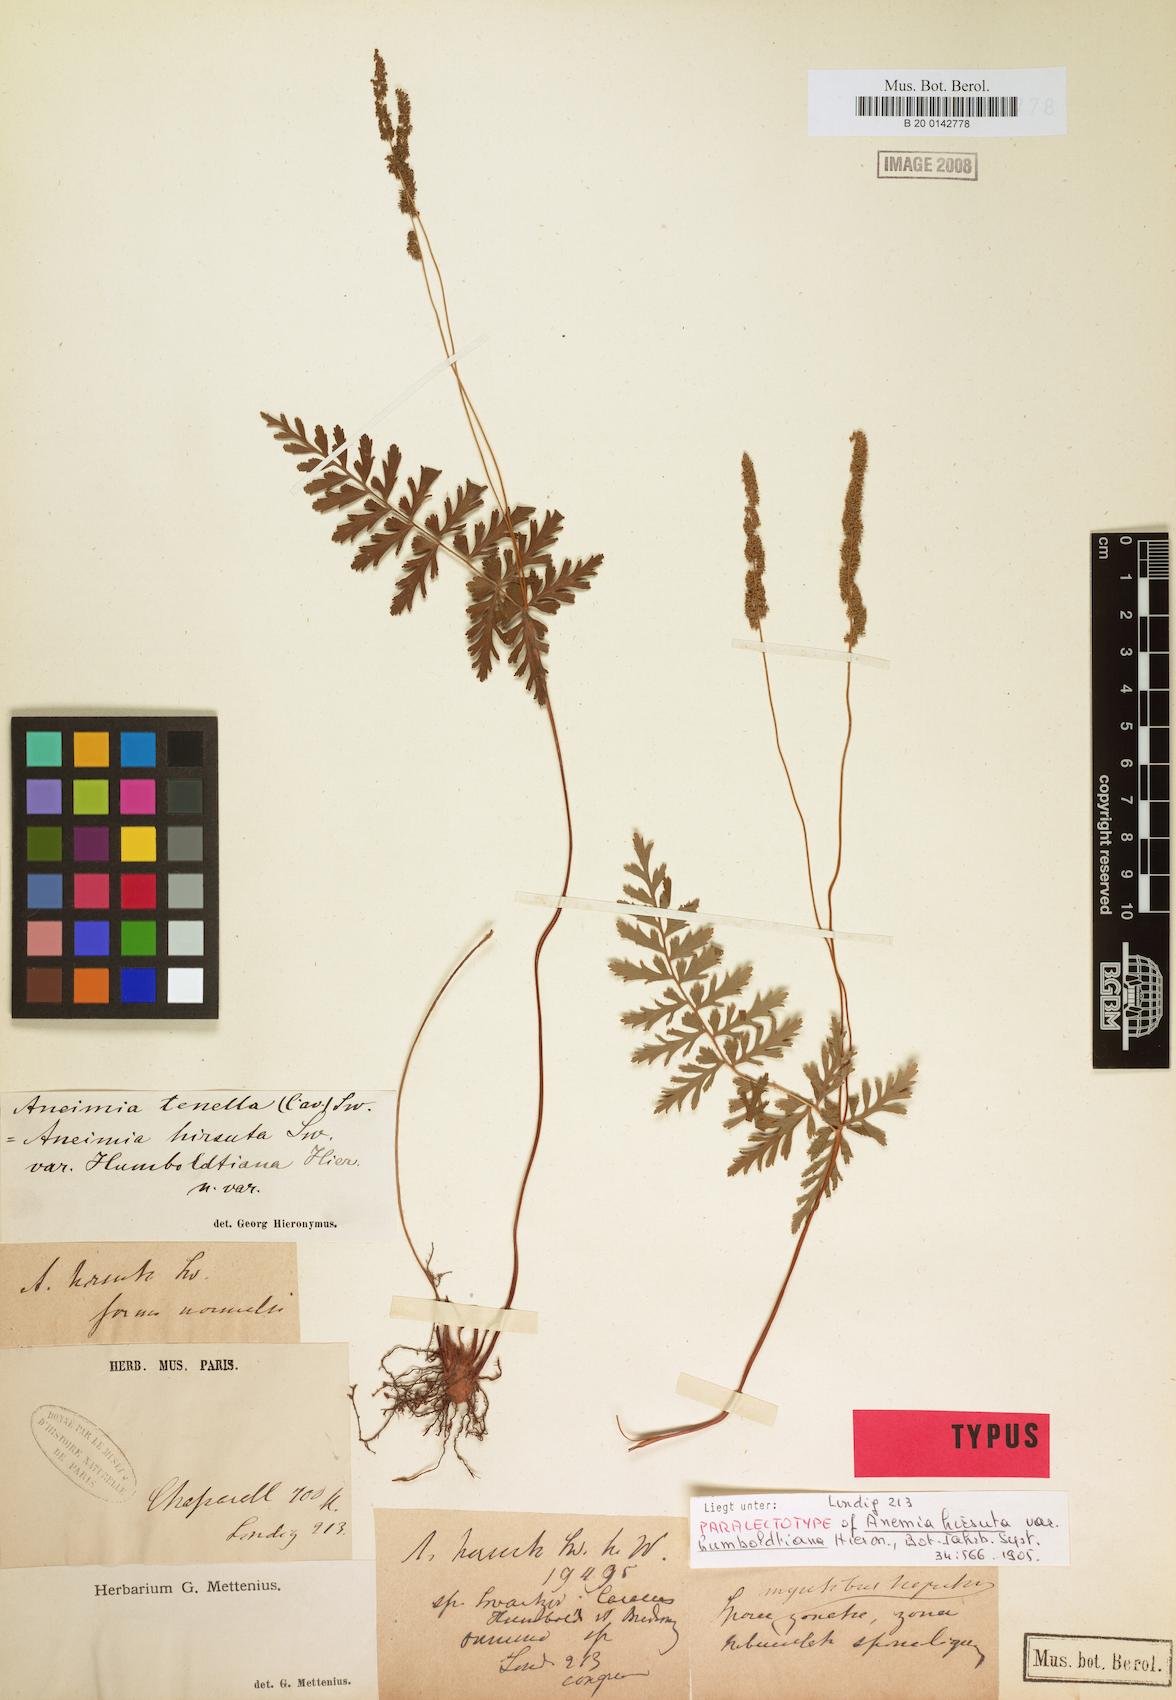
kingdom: Plantae
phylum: Tracheophyta
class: Polypodiopsida
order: Schizaeales
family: Anemiaceae
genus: Anemia
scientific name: Anemia hirsuta
